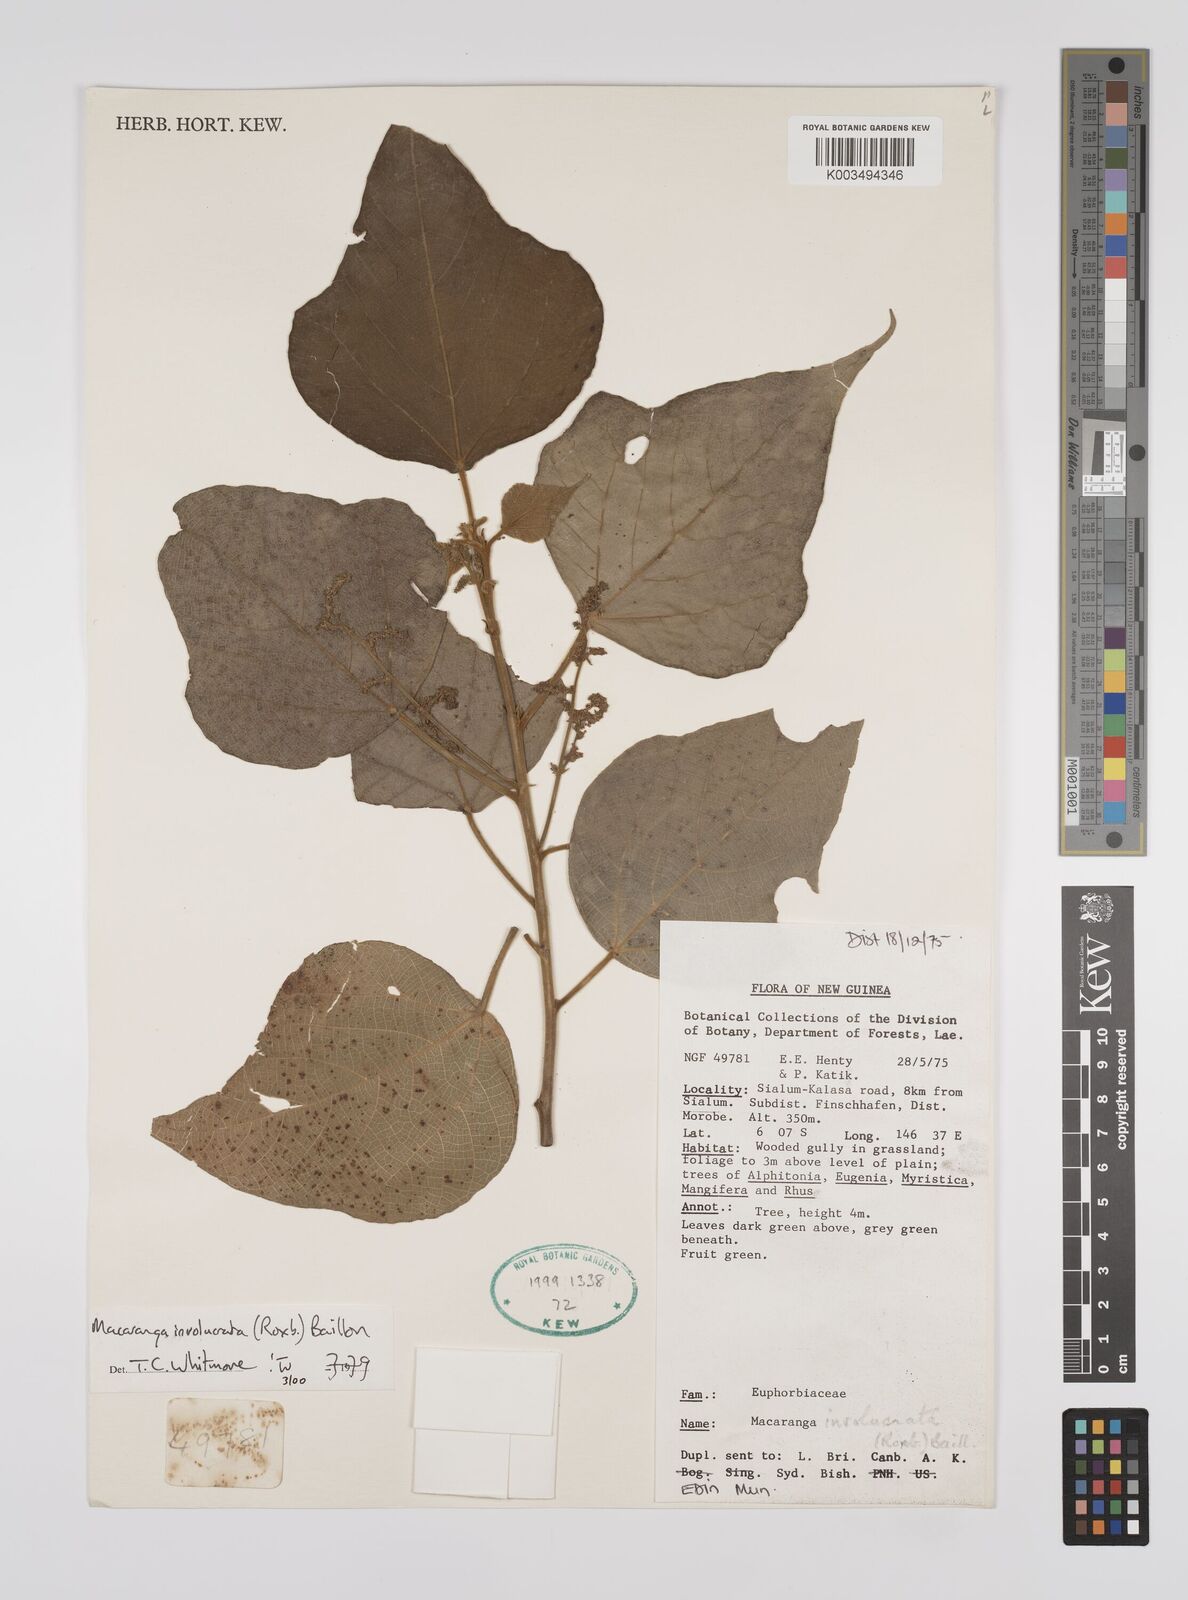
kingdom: Plantae
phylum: Tracheophyta
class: Magnoliopsida
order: Malpighiales
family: Euphorbiaceae
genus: Macaranga
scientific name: Macaranga involucrata
